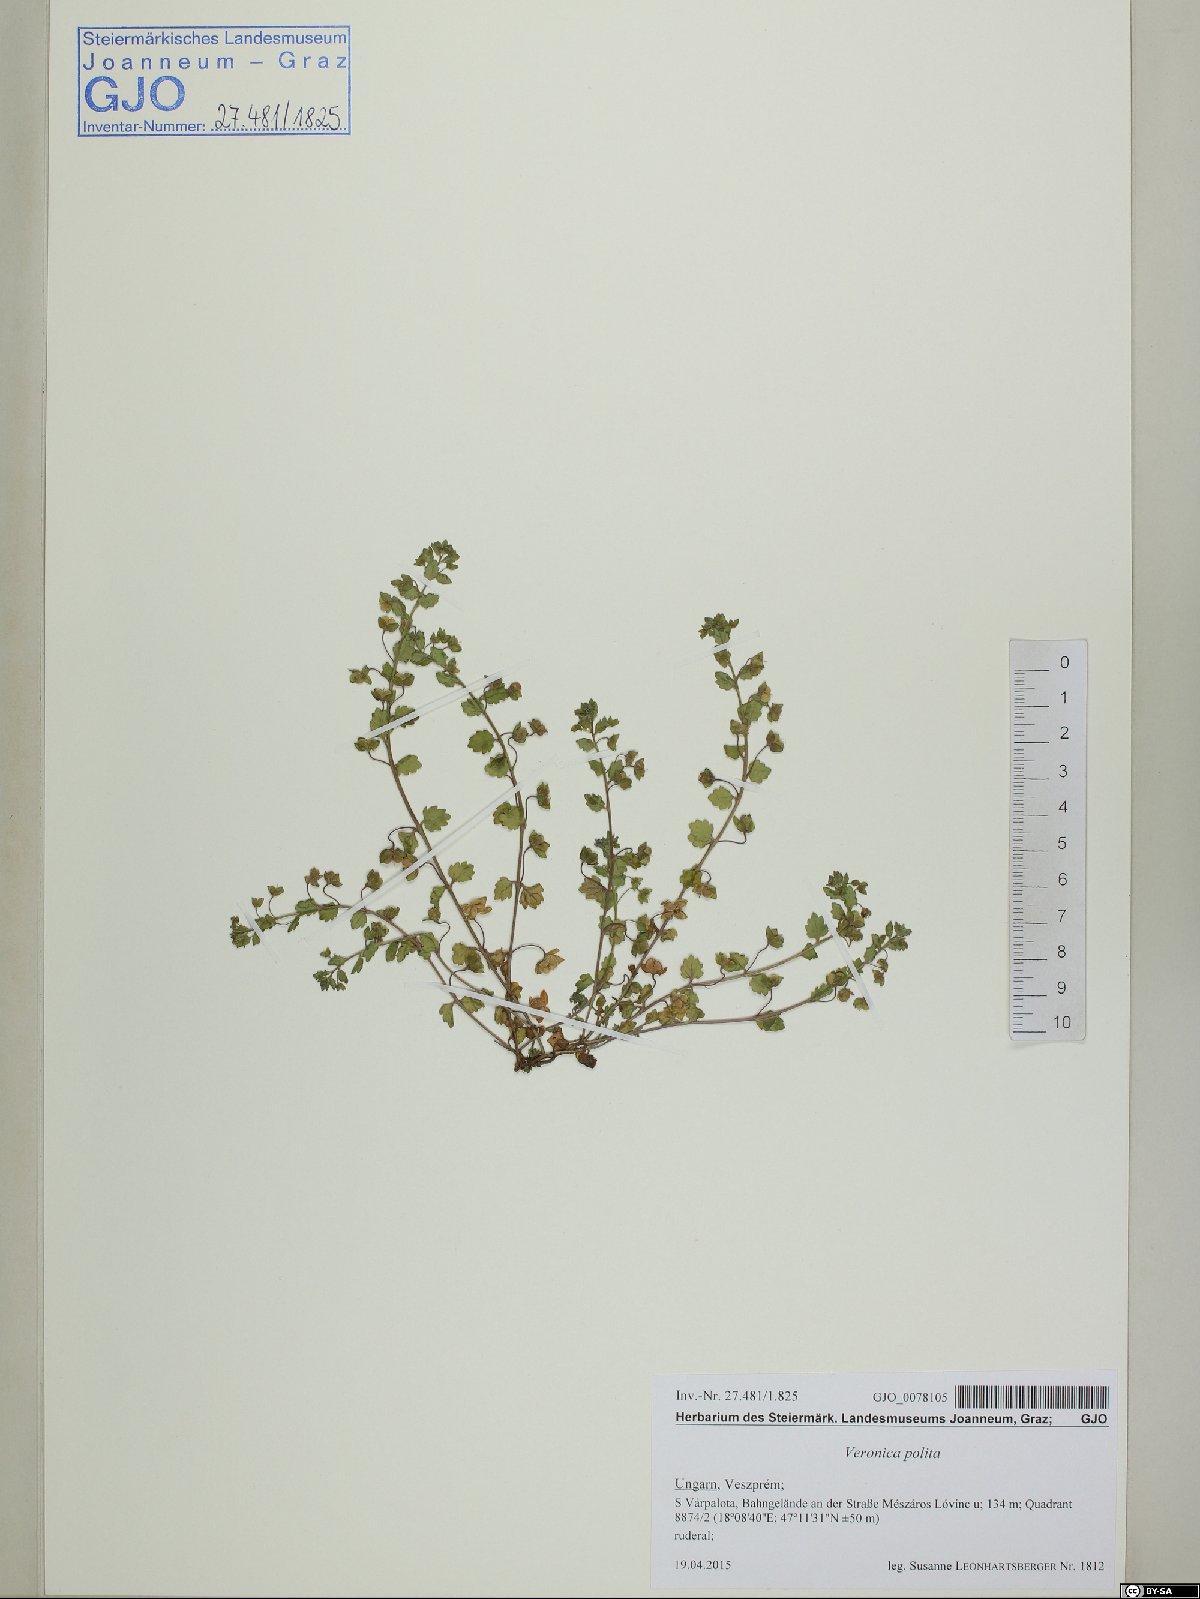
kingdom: Plantae
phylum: Tracheophyta
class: Magnoliopsida
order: Lamiales
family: Plantaginaceae
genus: Veronica
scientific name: Veronica polita
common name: Grey field-speedwell
